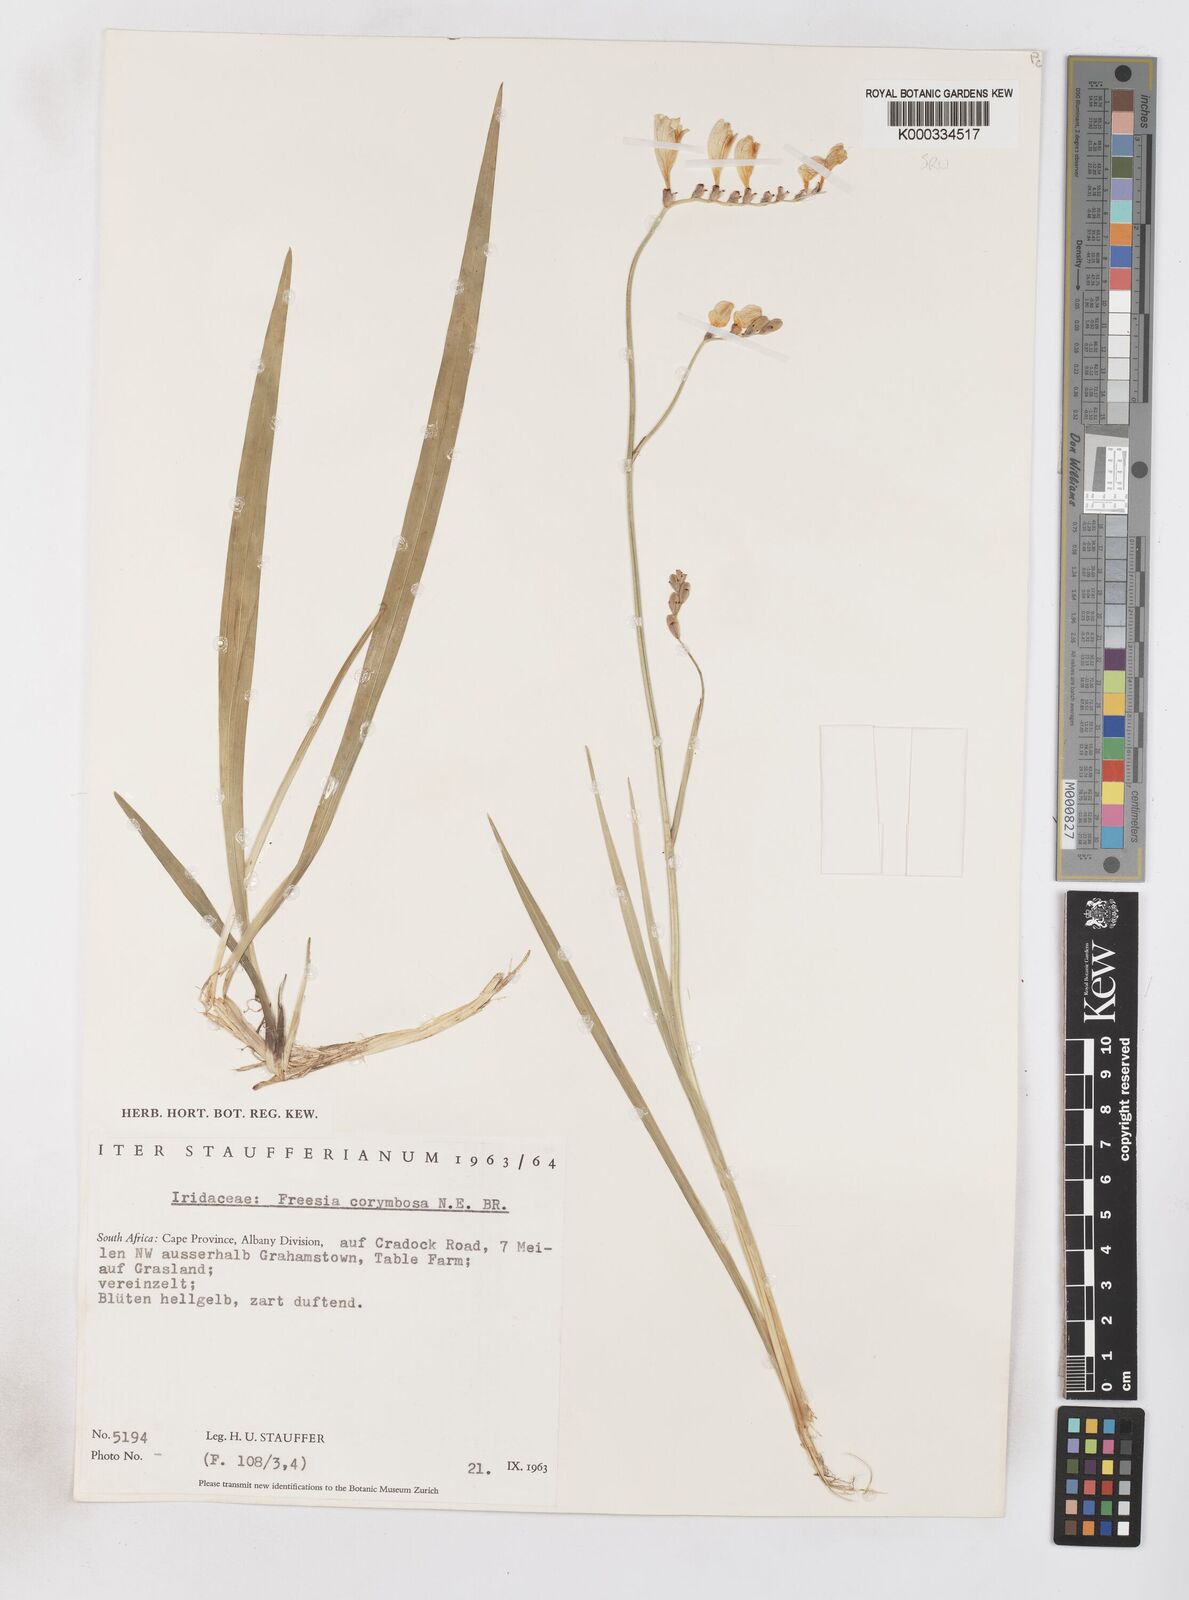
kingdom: Plantae
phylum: Tracheophyta
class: Liliopsida
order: Asparagales
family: Iridaceae
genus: Freesia
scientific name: Freesia corymbosa
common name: Common freesia
